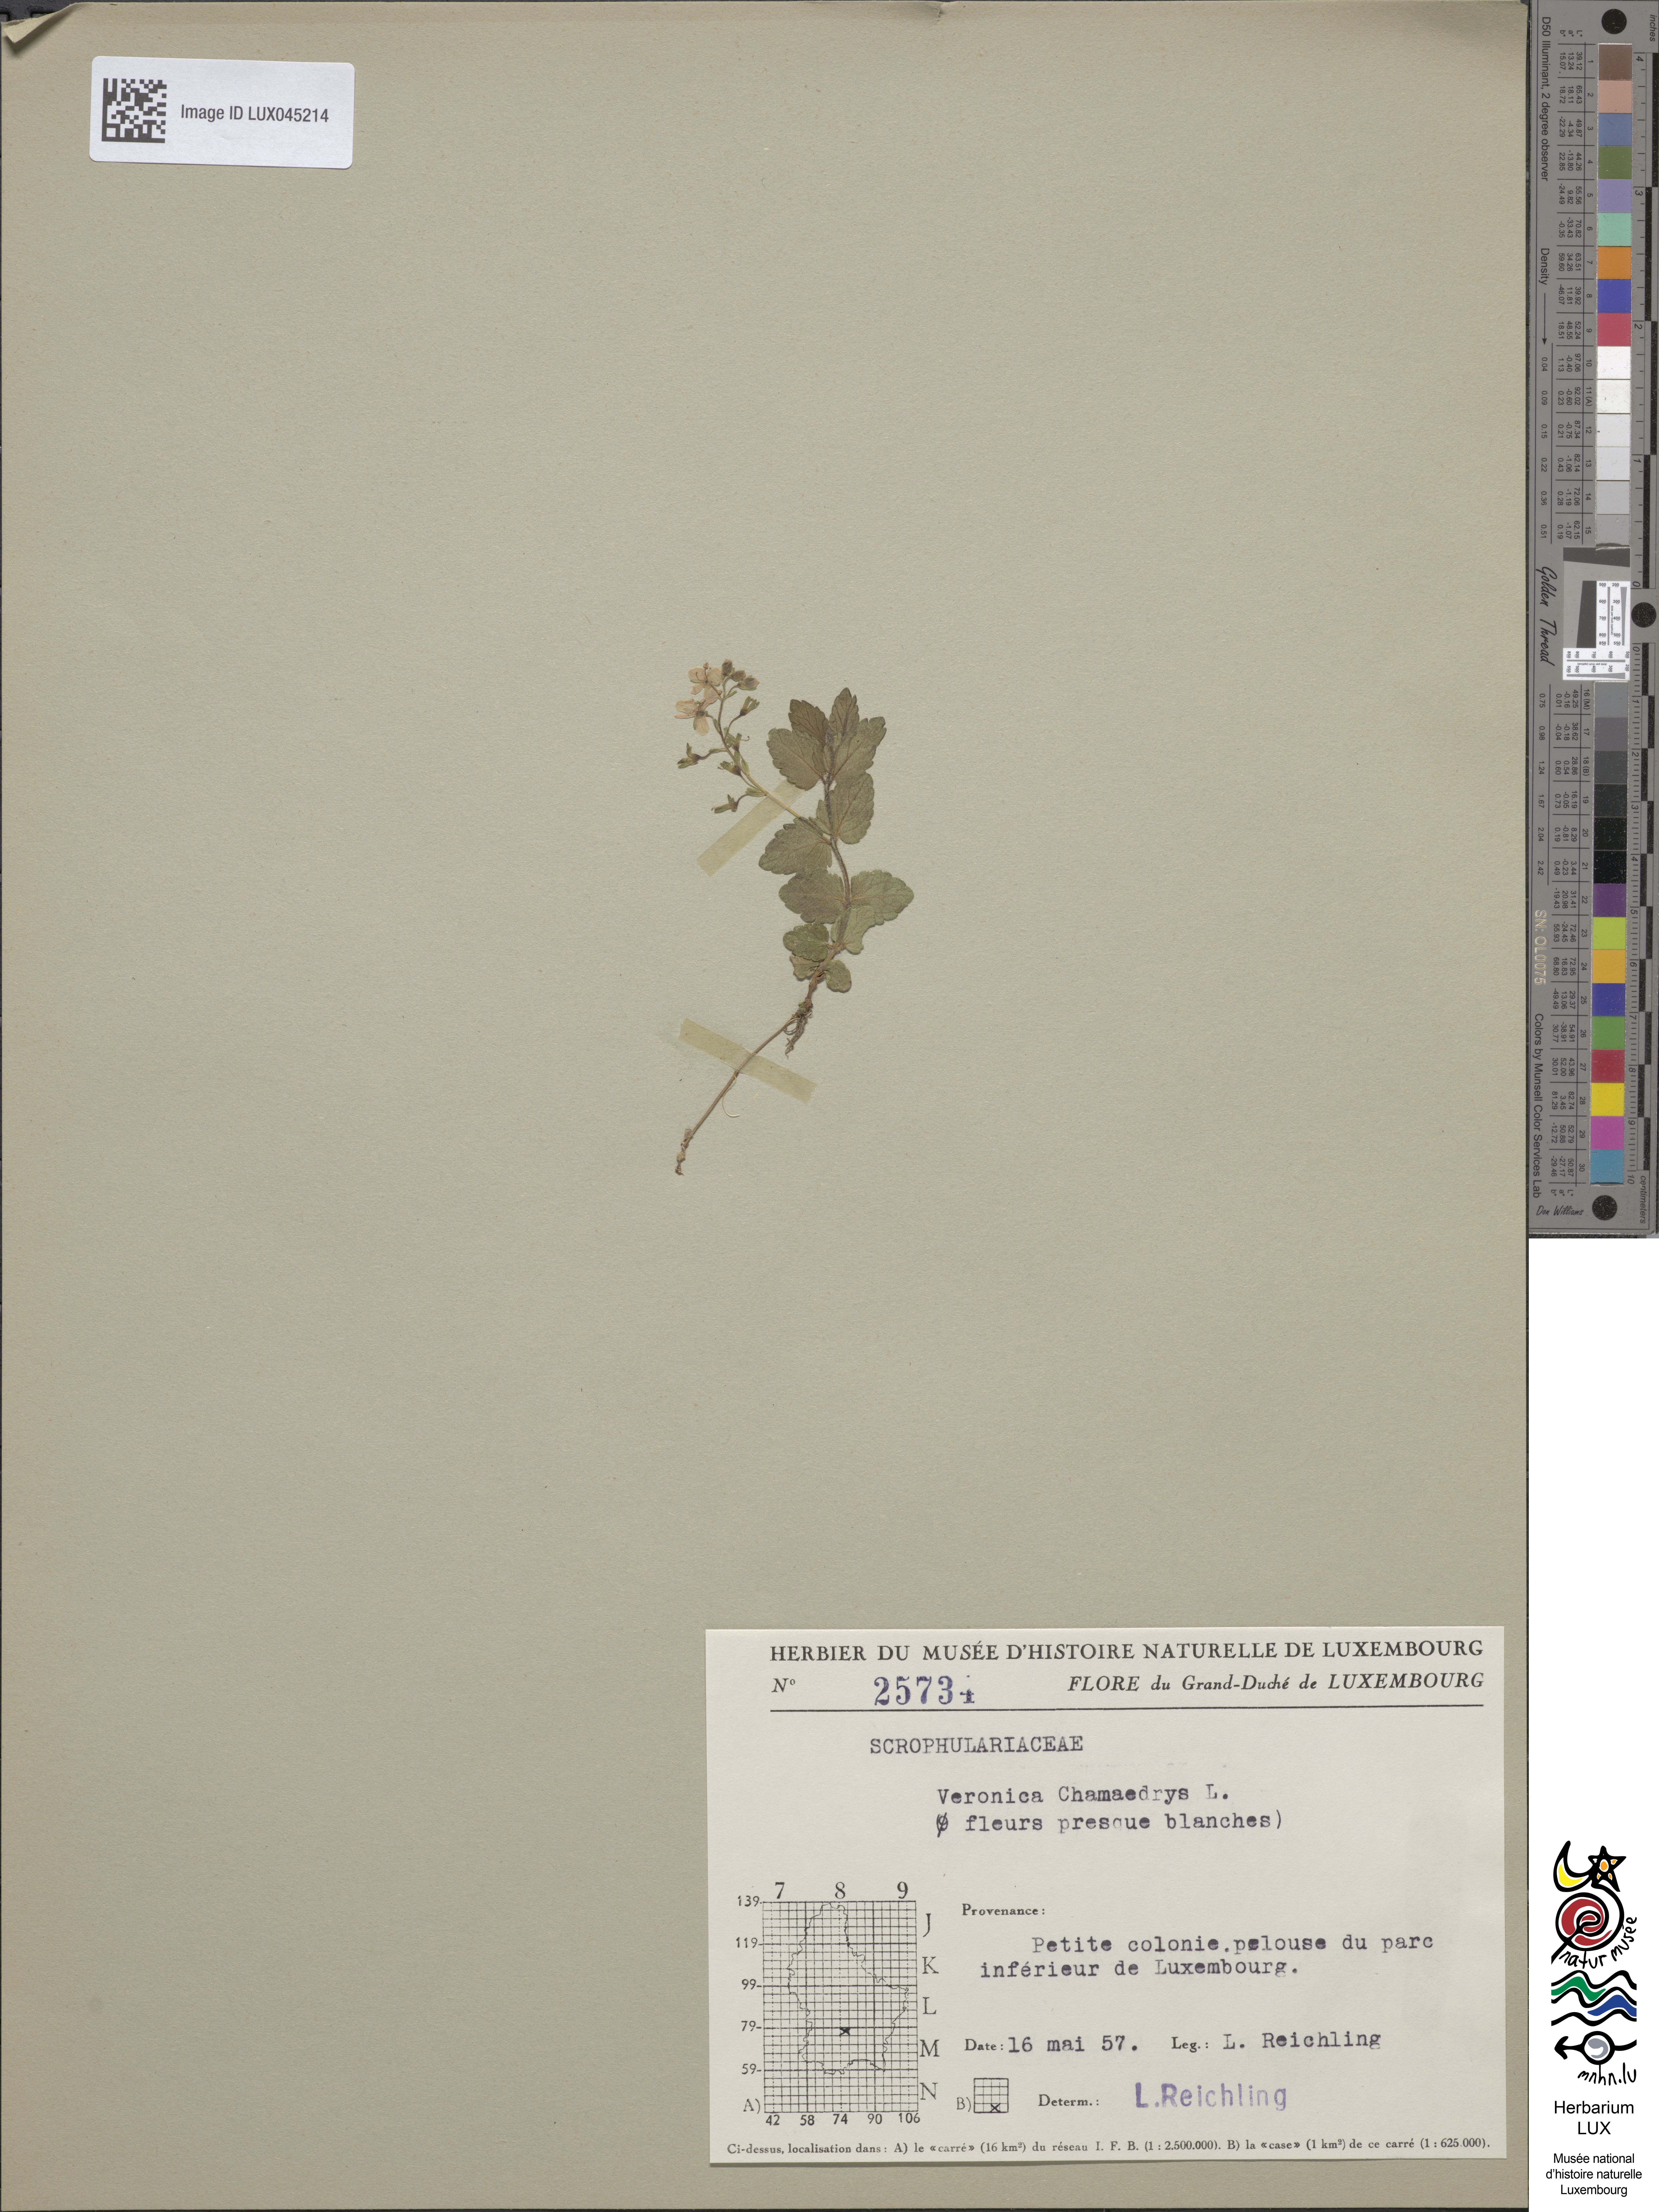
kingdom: Plantae
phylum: Tracheophyta
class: Magnoliopsida
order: Lamiales
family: Plantaginaceae
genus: Veronica
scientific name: Veronica chamaedrys
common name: Germander speedwell
